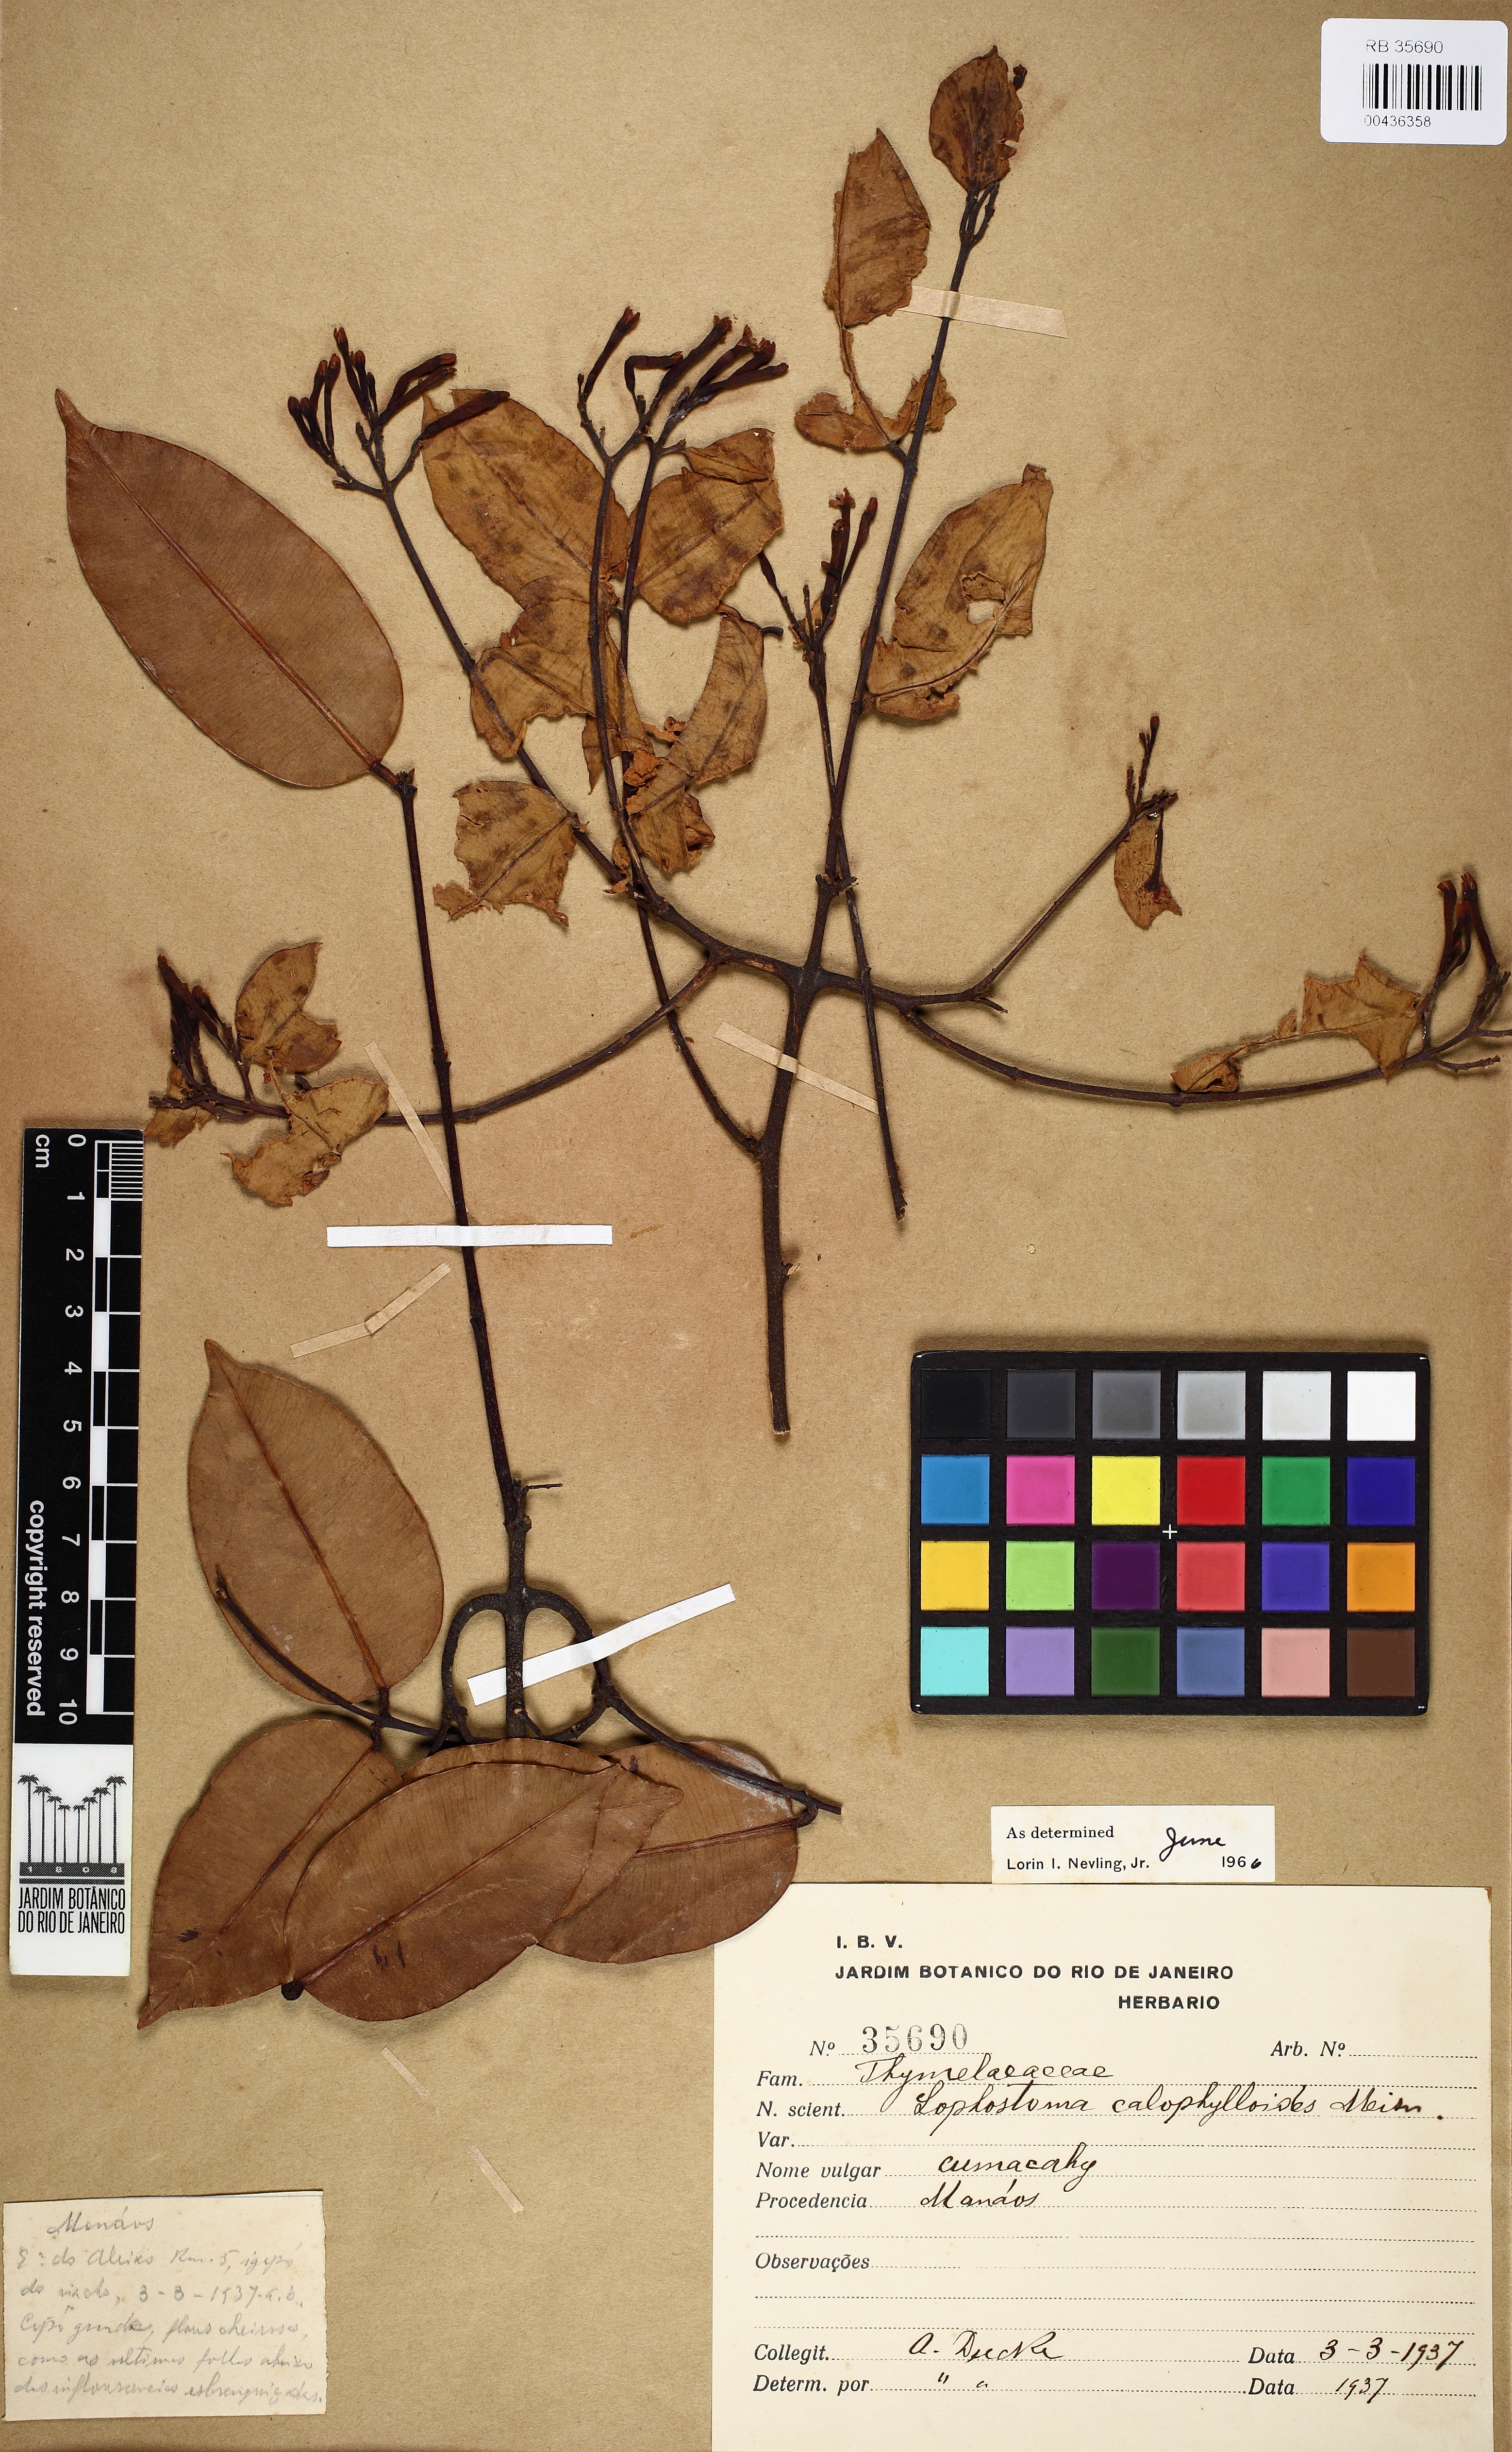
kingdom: Plantae
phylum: Tracheophyta
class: Magnoliopsida
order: Malvales
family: Thymelaeaceae
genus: Lophostoma
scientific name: Lophostoma calophylloides
